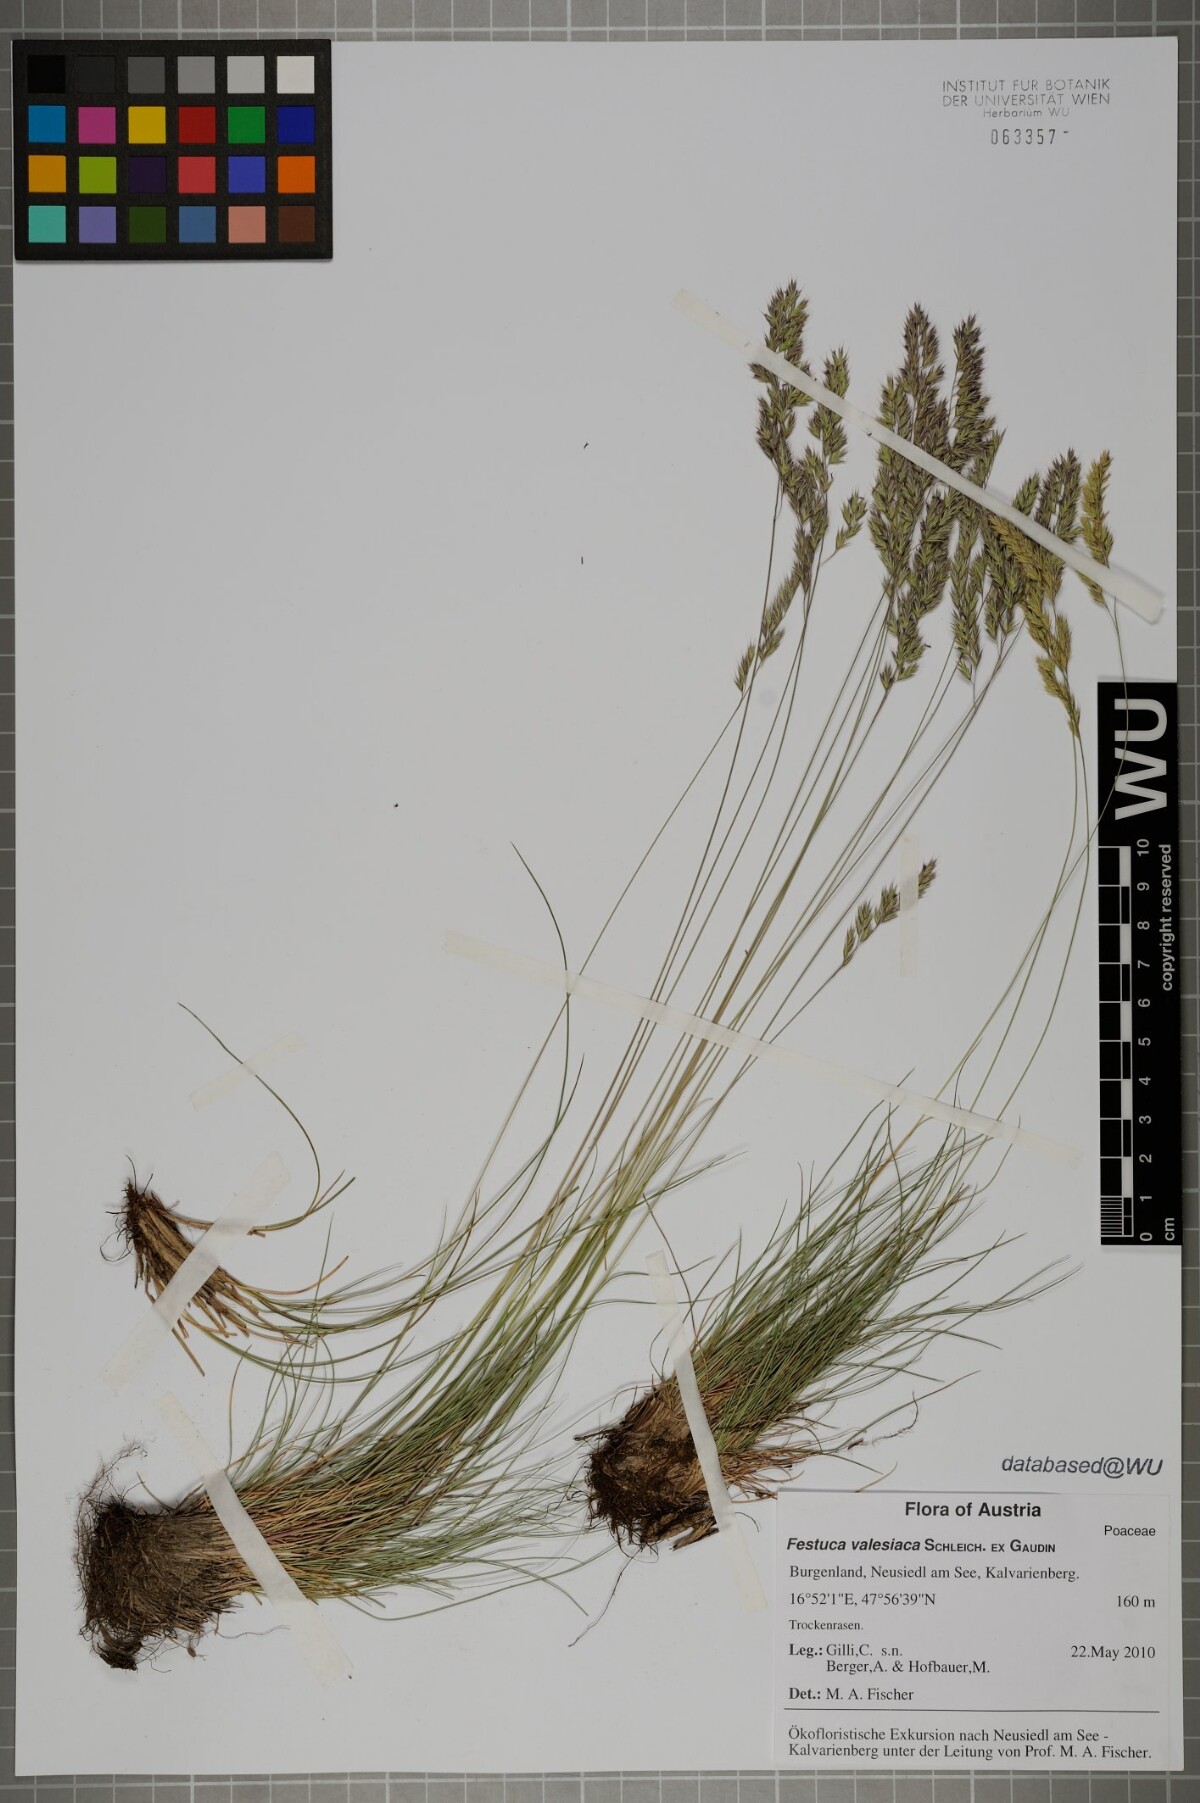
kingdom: Plantae
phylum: Tracheophyta
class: Liliopsida
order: Poales
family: Poaceae
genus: Festuca
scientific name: Festuca valesiaca
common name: Volga fescue
